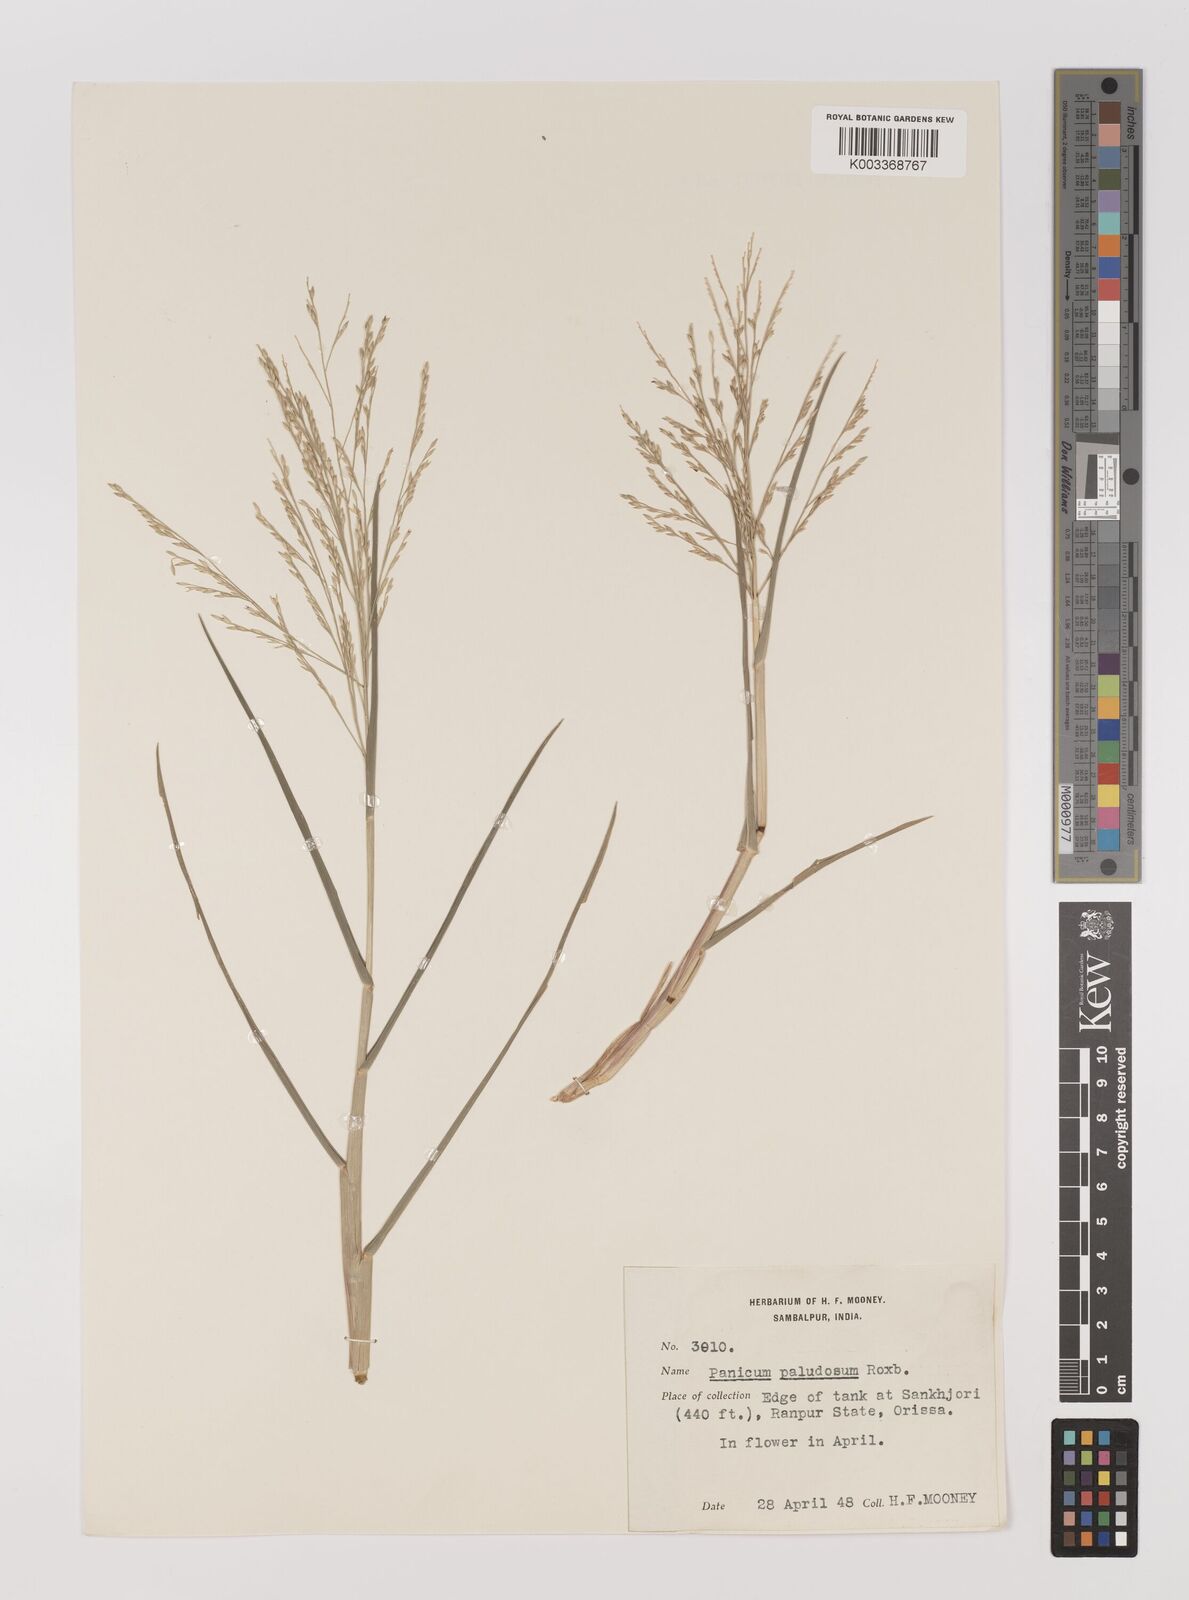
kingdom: Plantae
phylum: Tracheophyta
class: Liliopsida
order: Poales
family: Poaceae
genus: Louisiella
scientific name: Louisiella paludosa
